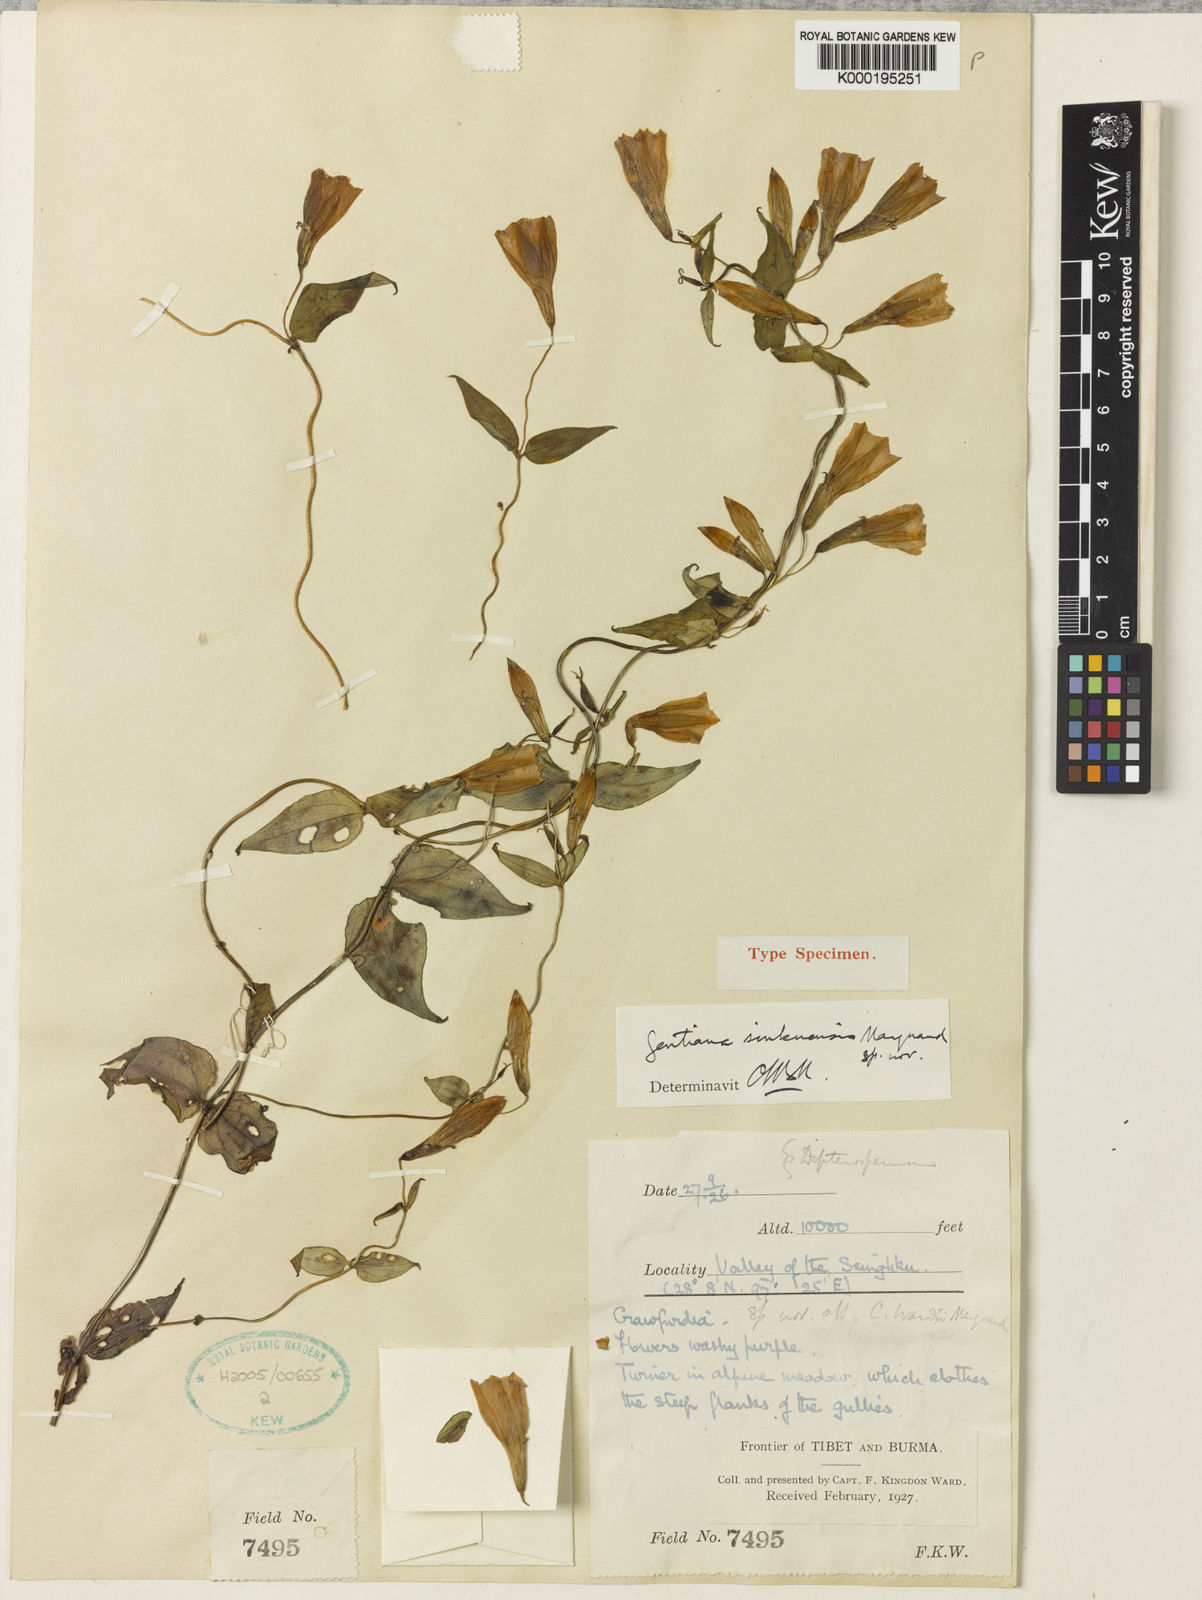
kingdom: Plantae
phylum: Tracheophyta
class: Magnoliopsida
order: Gentianales
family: Gentianaceae
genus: Crawfurdia
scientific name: Crawfurdia sinkuensis
